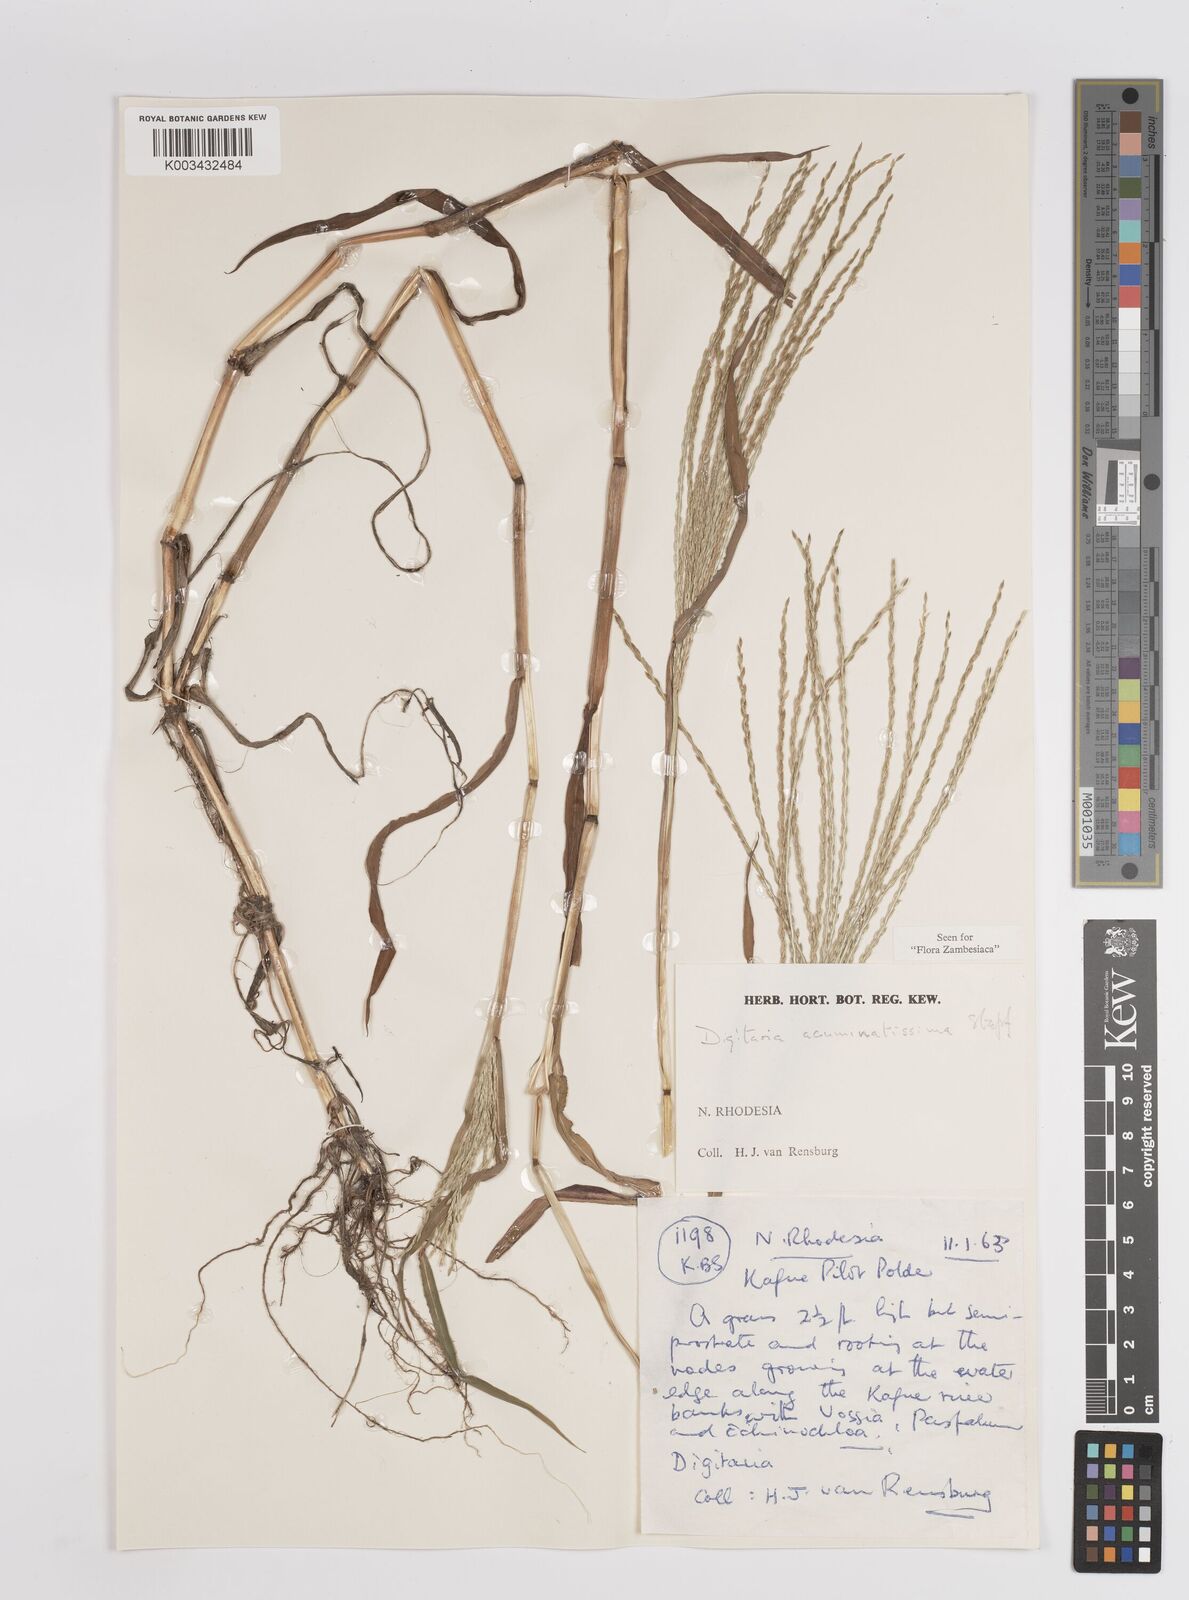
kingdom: Plantae
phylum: Tracheophyta
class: Liliopsida
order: Poales
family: Poaceae
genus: Digitaria
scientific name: Digitaria acuminatissima
